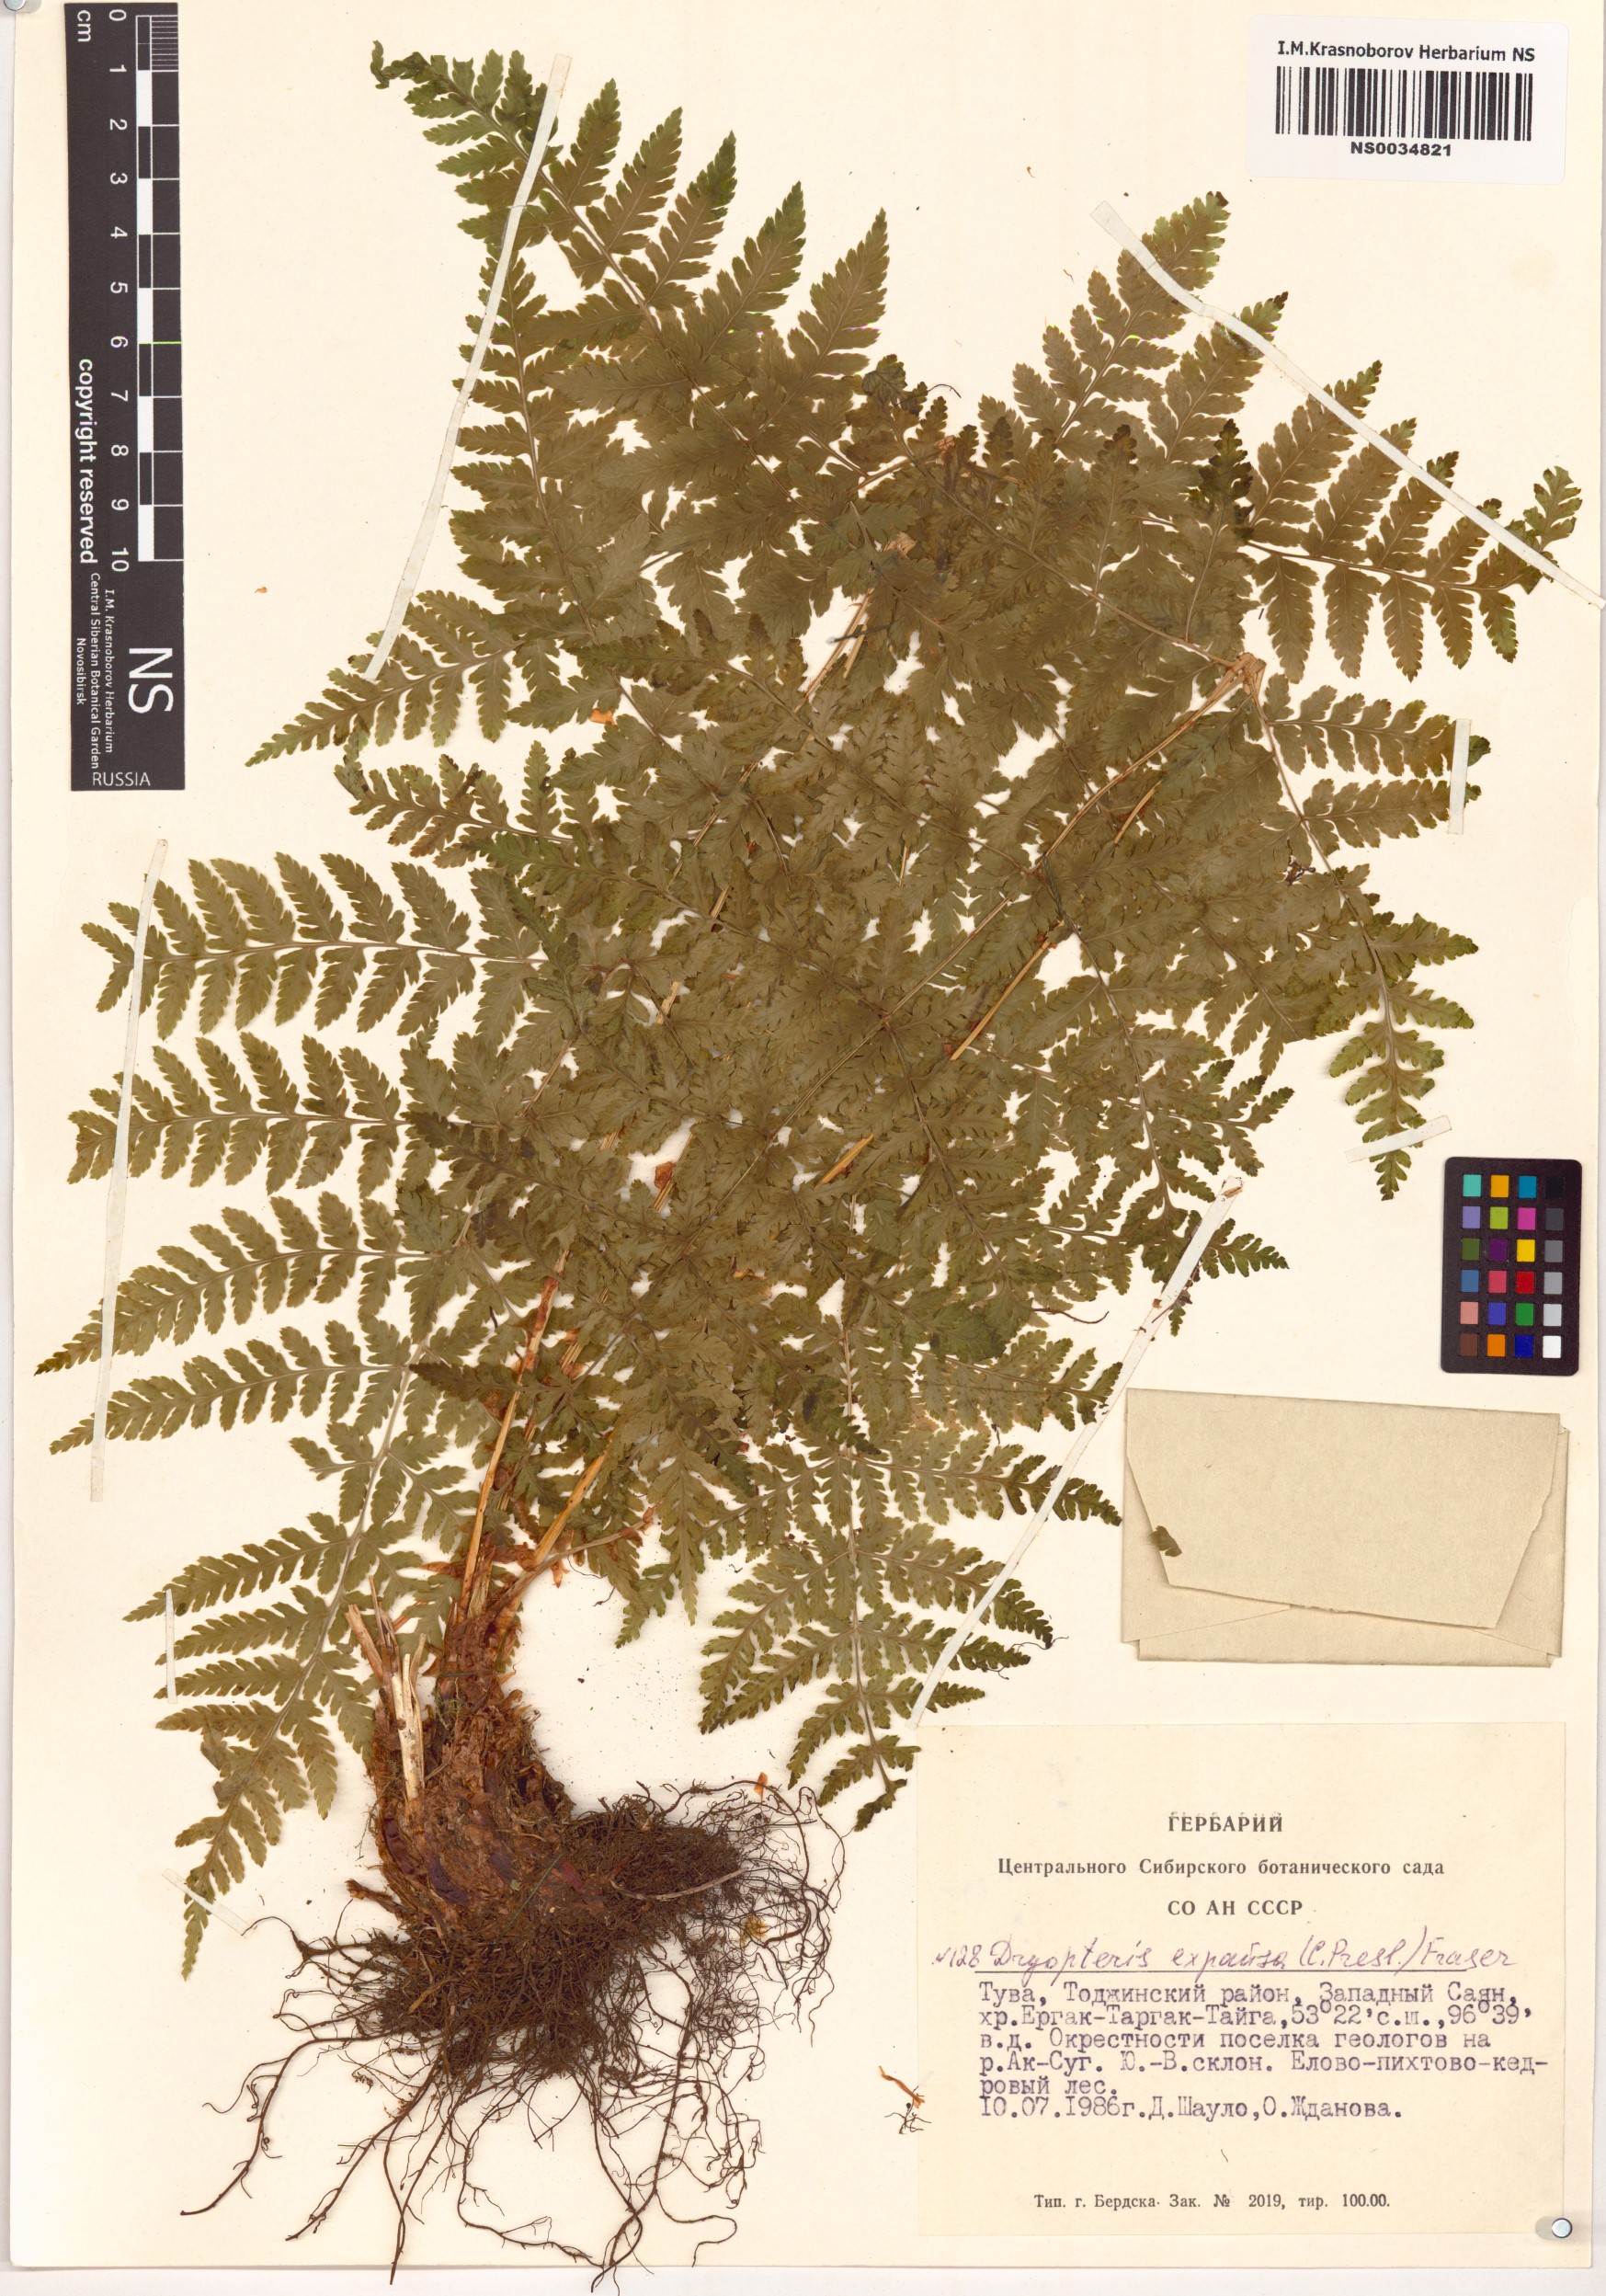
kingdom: Plantae
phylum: Tracheophyta
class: Polypodiopsida
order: Polypodiales
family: Dryopteridaceae
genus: Dryopteris
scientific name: Dryopteris expansa
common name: Northern buckler fern
